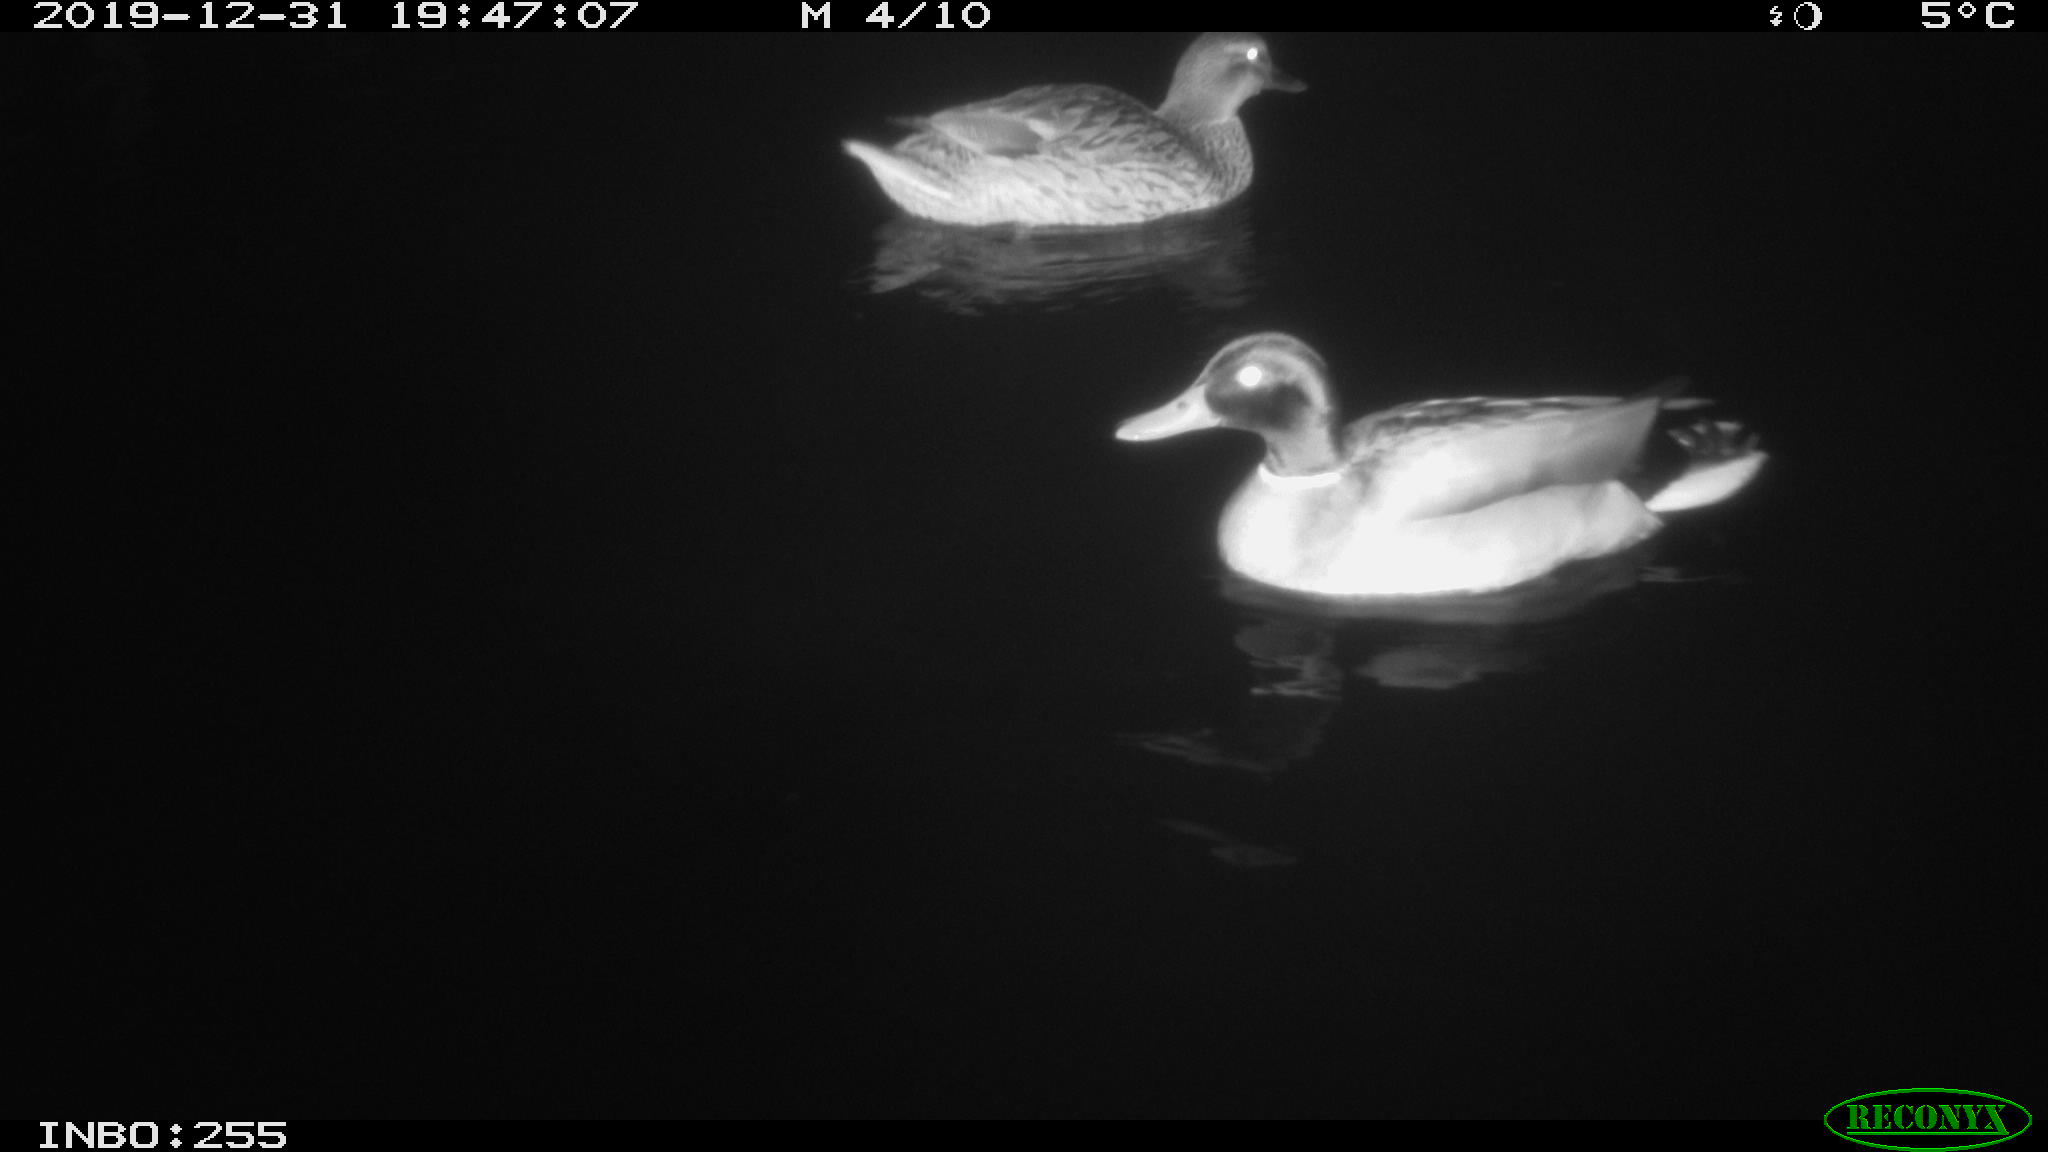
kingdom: Animalia
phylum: Chordata
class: Aves
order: Anseriformes
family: Anatidae
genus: Anas
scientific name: Anas platyrhynchos
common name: Mallard
